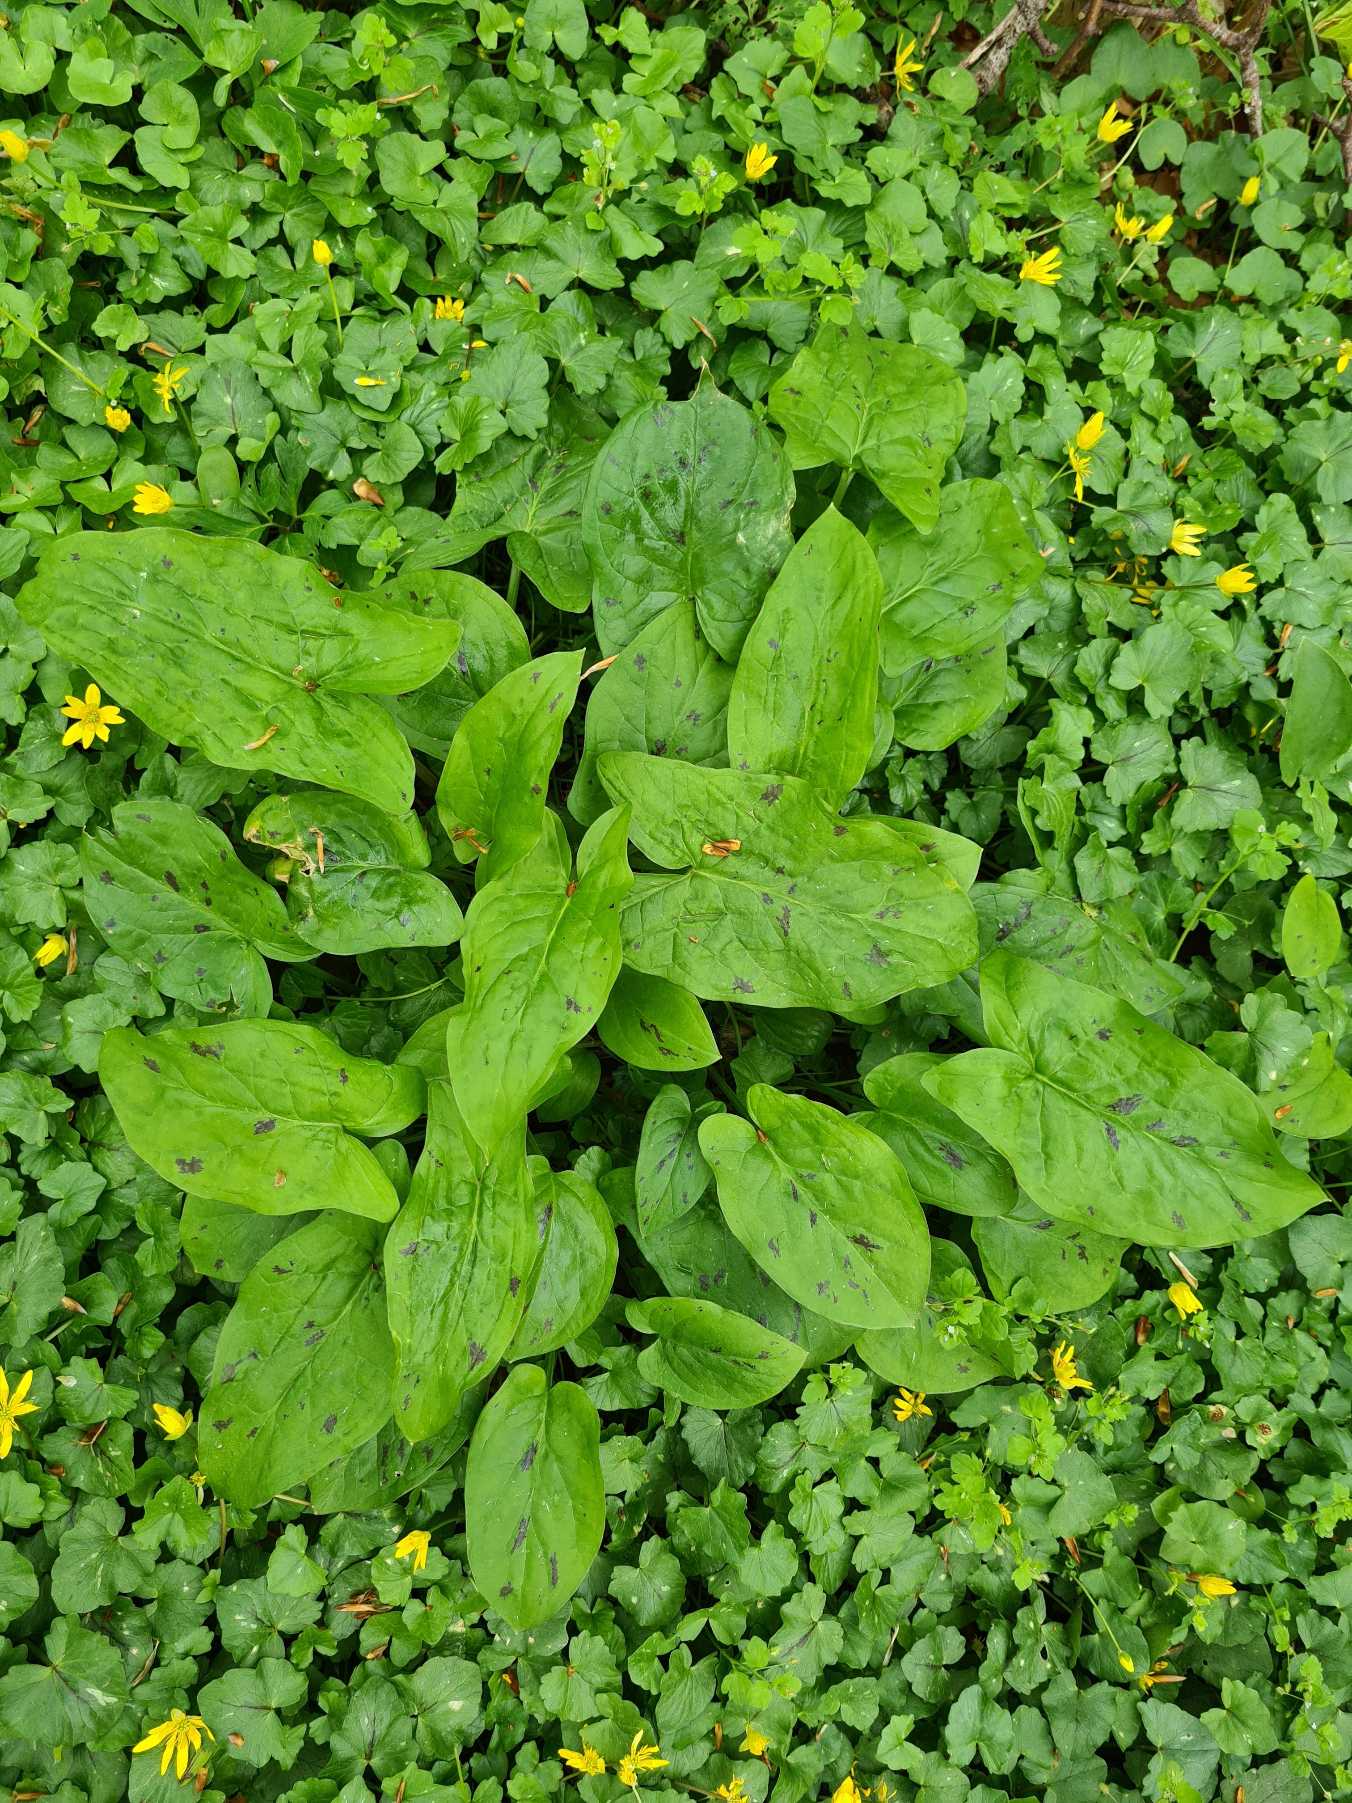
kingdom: Plantae
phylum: Tracheophyta
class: Liliopsida
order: Alismatales
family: Araceae
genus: Arum
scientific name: Arum maculatum
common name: Plettet arum
